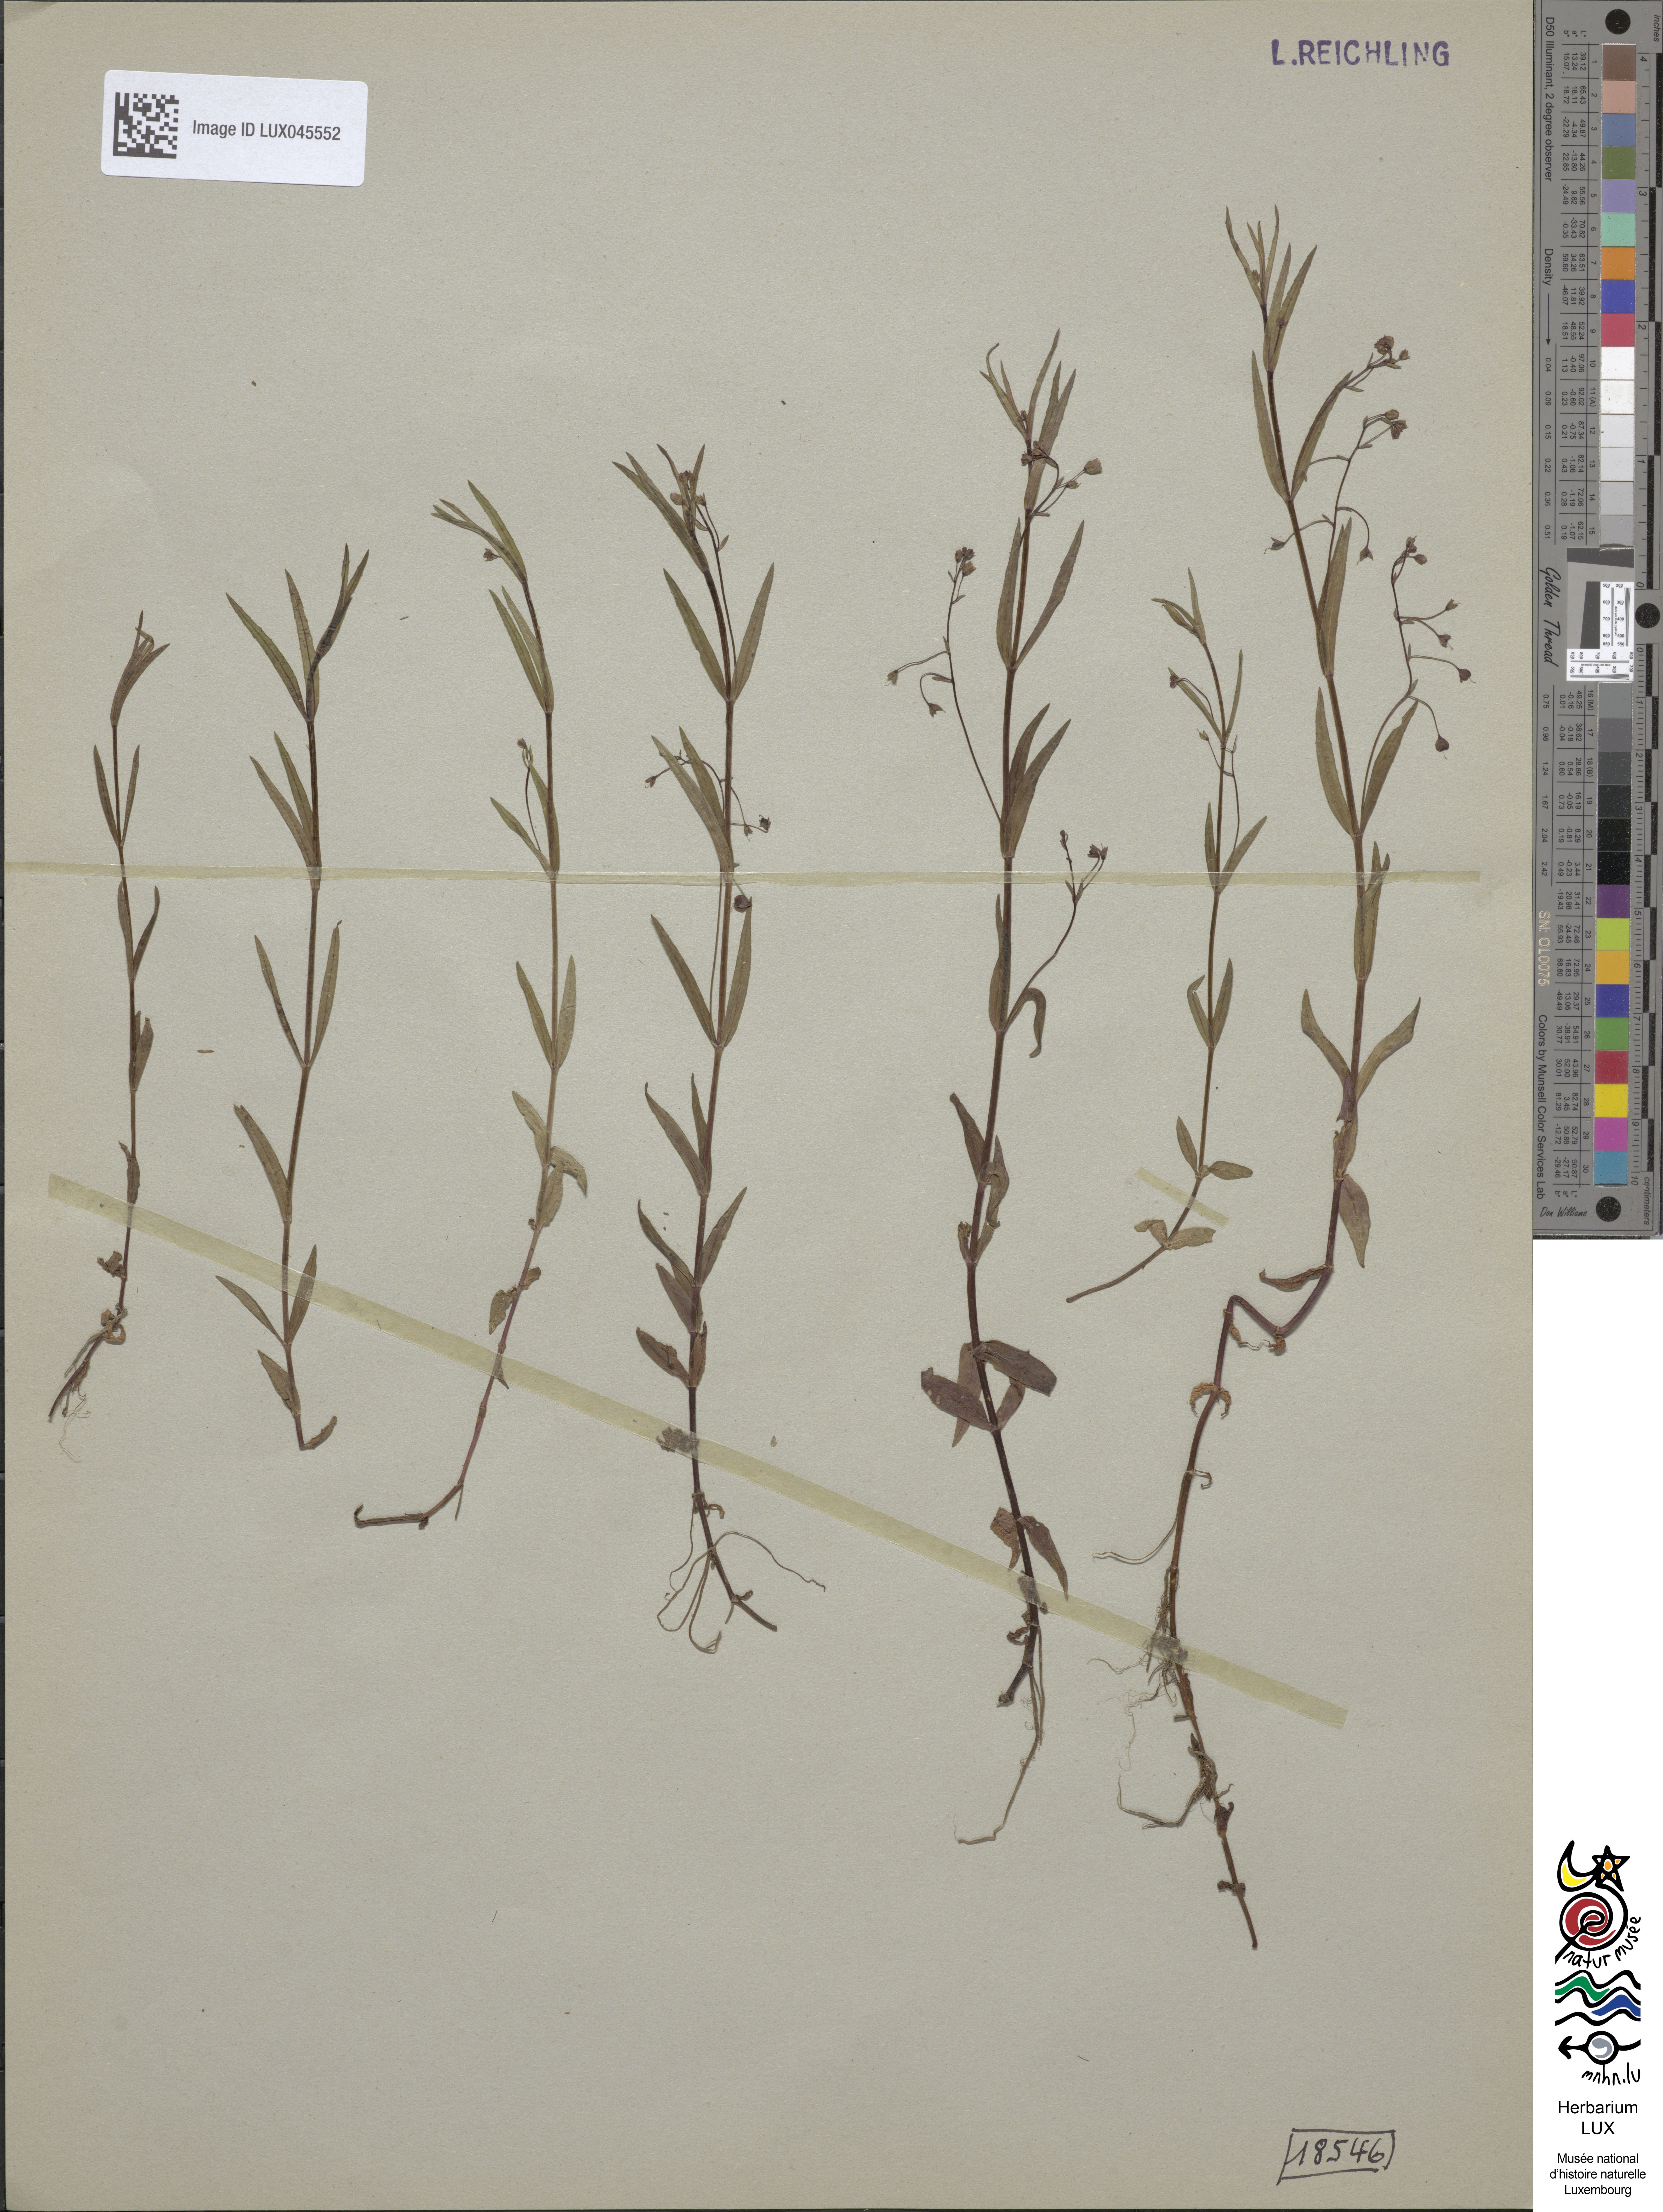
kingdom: Plantae
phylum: Tracheophyta
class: Magnoliopsida
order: Lamiales
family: Plantaginaceae
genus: Veronica
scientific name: Veronica scutellata
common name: Marsh speedwell
